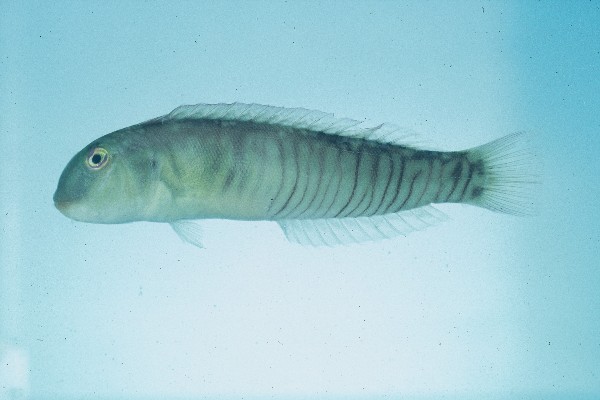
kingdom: Animalia
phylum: Chordata
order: Perciformes
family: Labridae
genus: Cymolutes
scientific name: Cymolutes torquatus
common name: Razor wrasse
